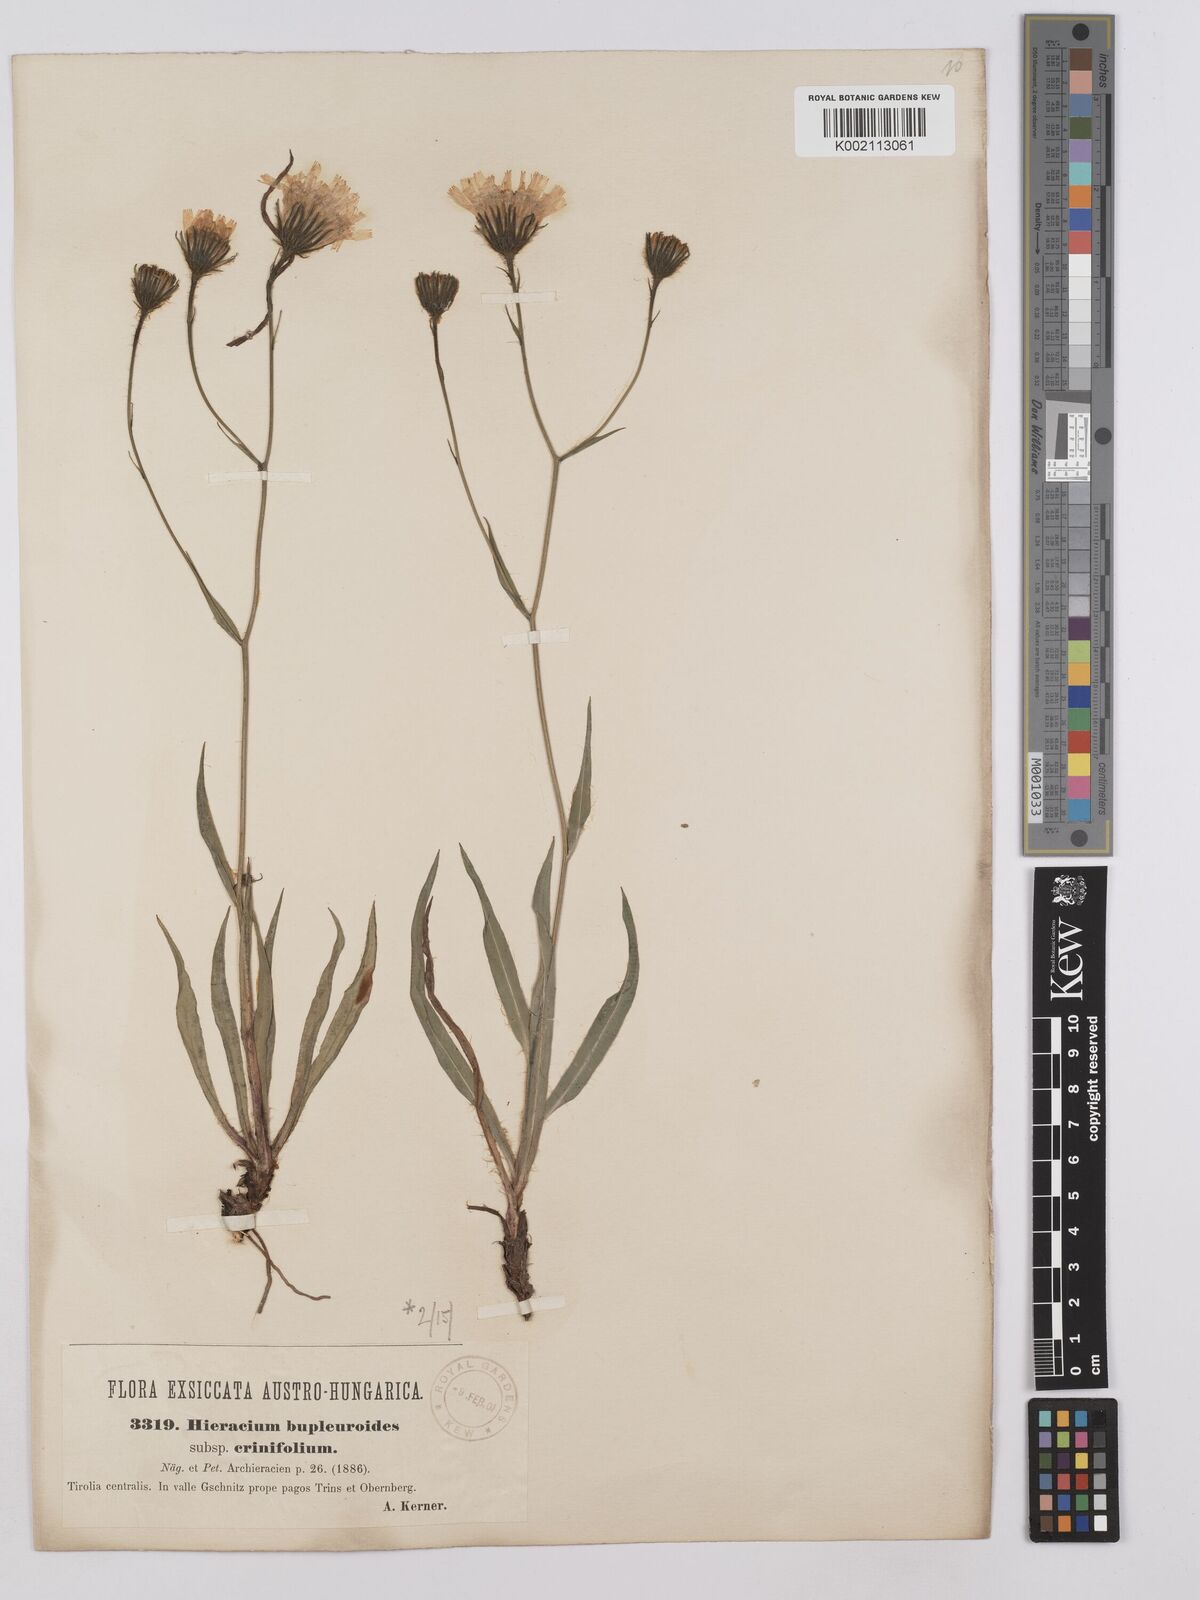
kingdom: Plantae
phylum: Tracheophyta
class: Magnoliopsida
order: Asterales
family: Asteraceae
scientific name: Asteraceae
